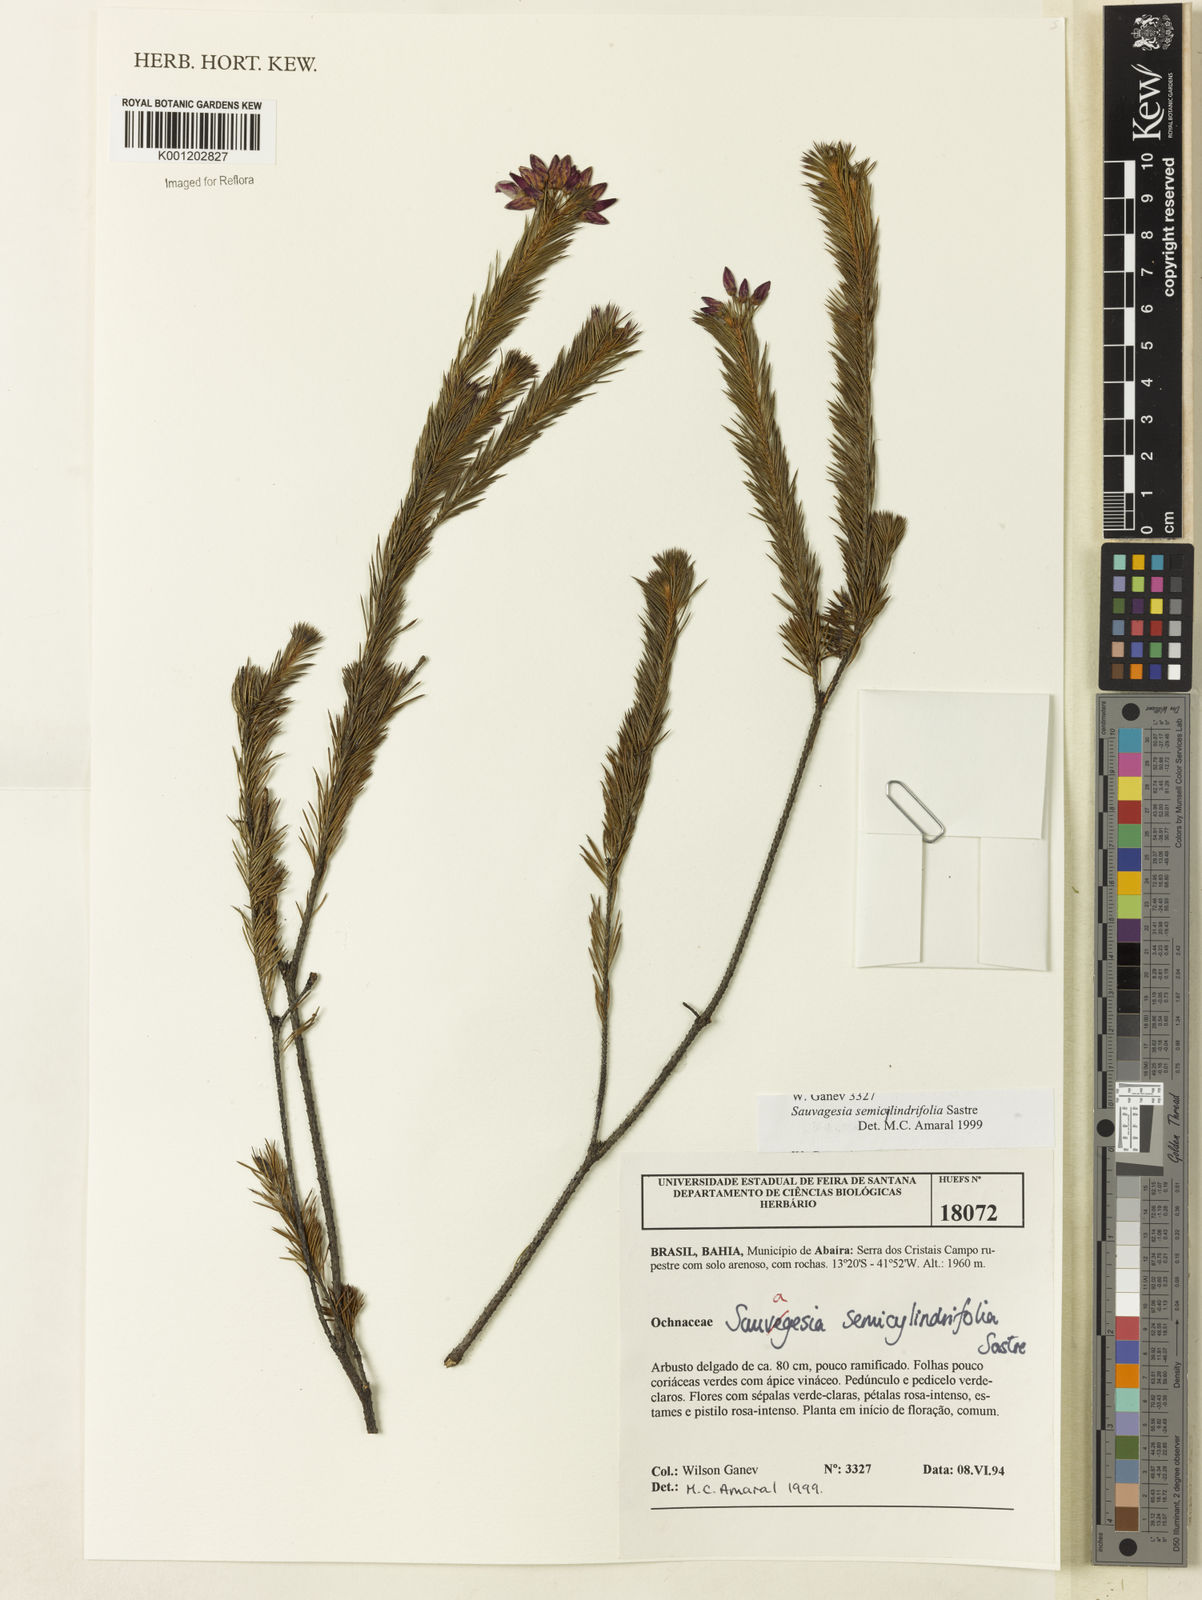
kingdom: Plantae
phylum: Tracheophyta
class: Magnoliopsida
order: Malpighiales
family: Ochnaceae
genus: Sauvagesia
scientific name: Sauvagesia semicylindrifolia
